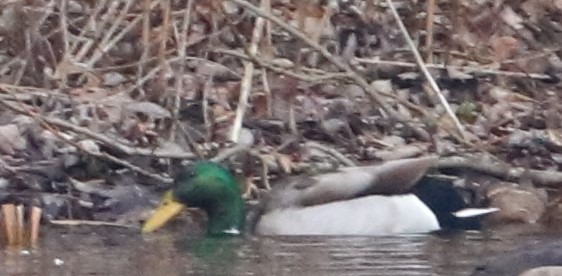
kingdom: Animalia
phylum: Chordata
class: Aves
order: Anseriformes
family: Anatidae
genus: Anas
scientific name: Anas platyrhynchos
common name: Gråand
